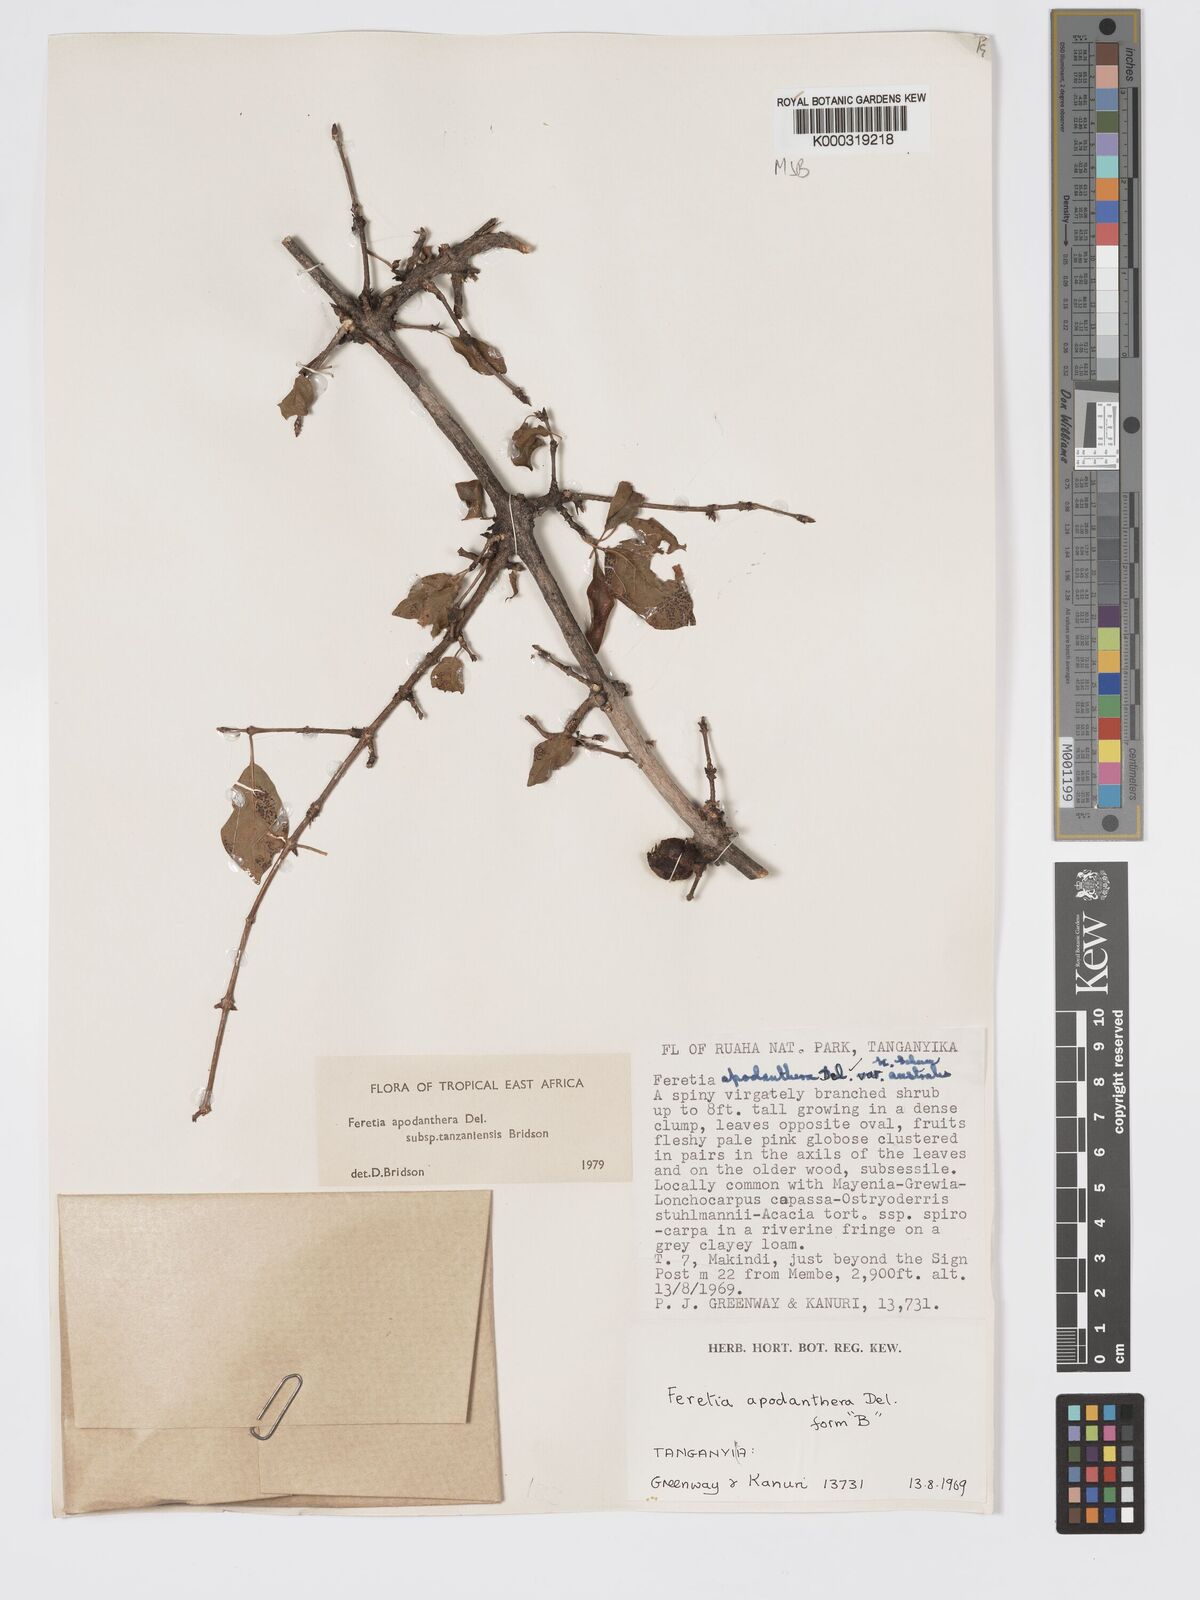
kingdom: Plantae
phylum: Tracheophyta
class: Magnoliopsida
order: Gentianales
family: Rubiaceae
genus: Feretia
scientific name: Feretia apodanthera
